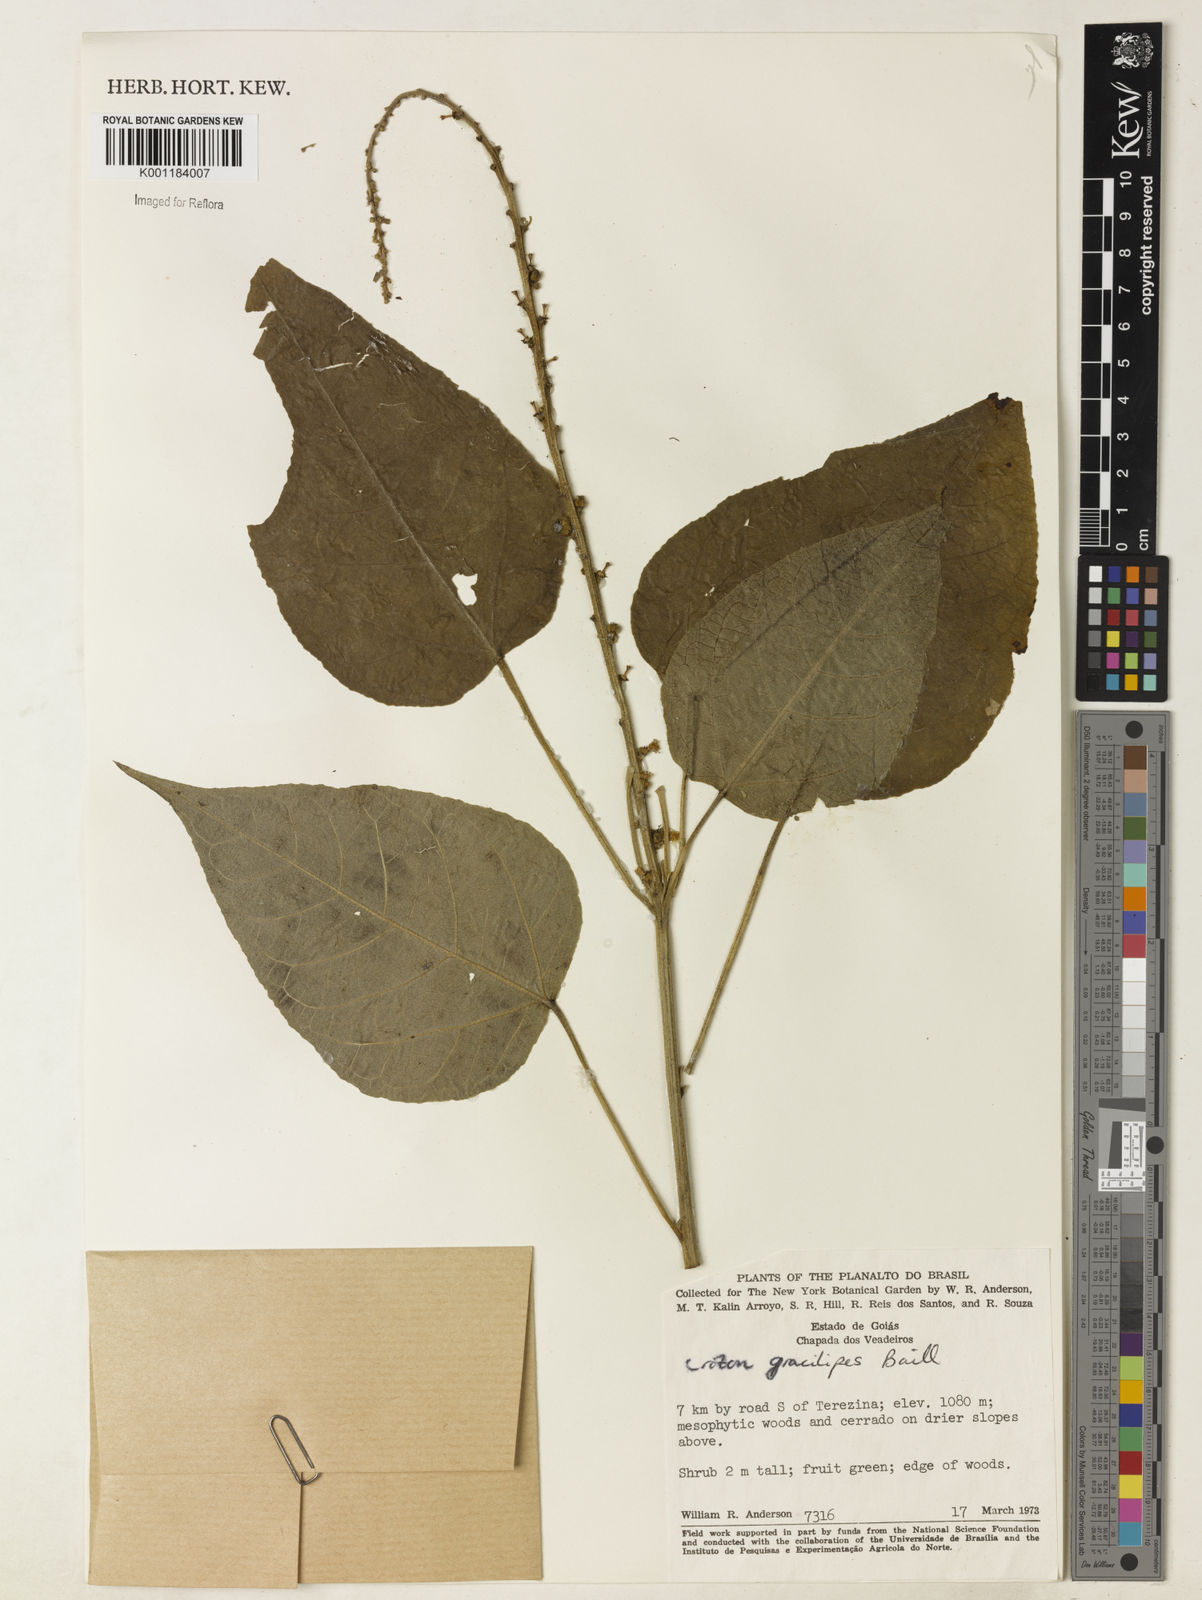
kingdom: Plantae
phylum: Tracheophyta
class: Magnoliopsida
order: Malpighiales
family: Euphorbiaceae
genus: Croton
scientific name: Croton gracilipes
